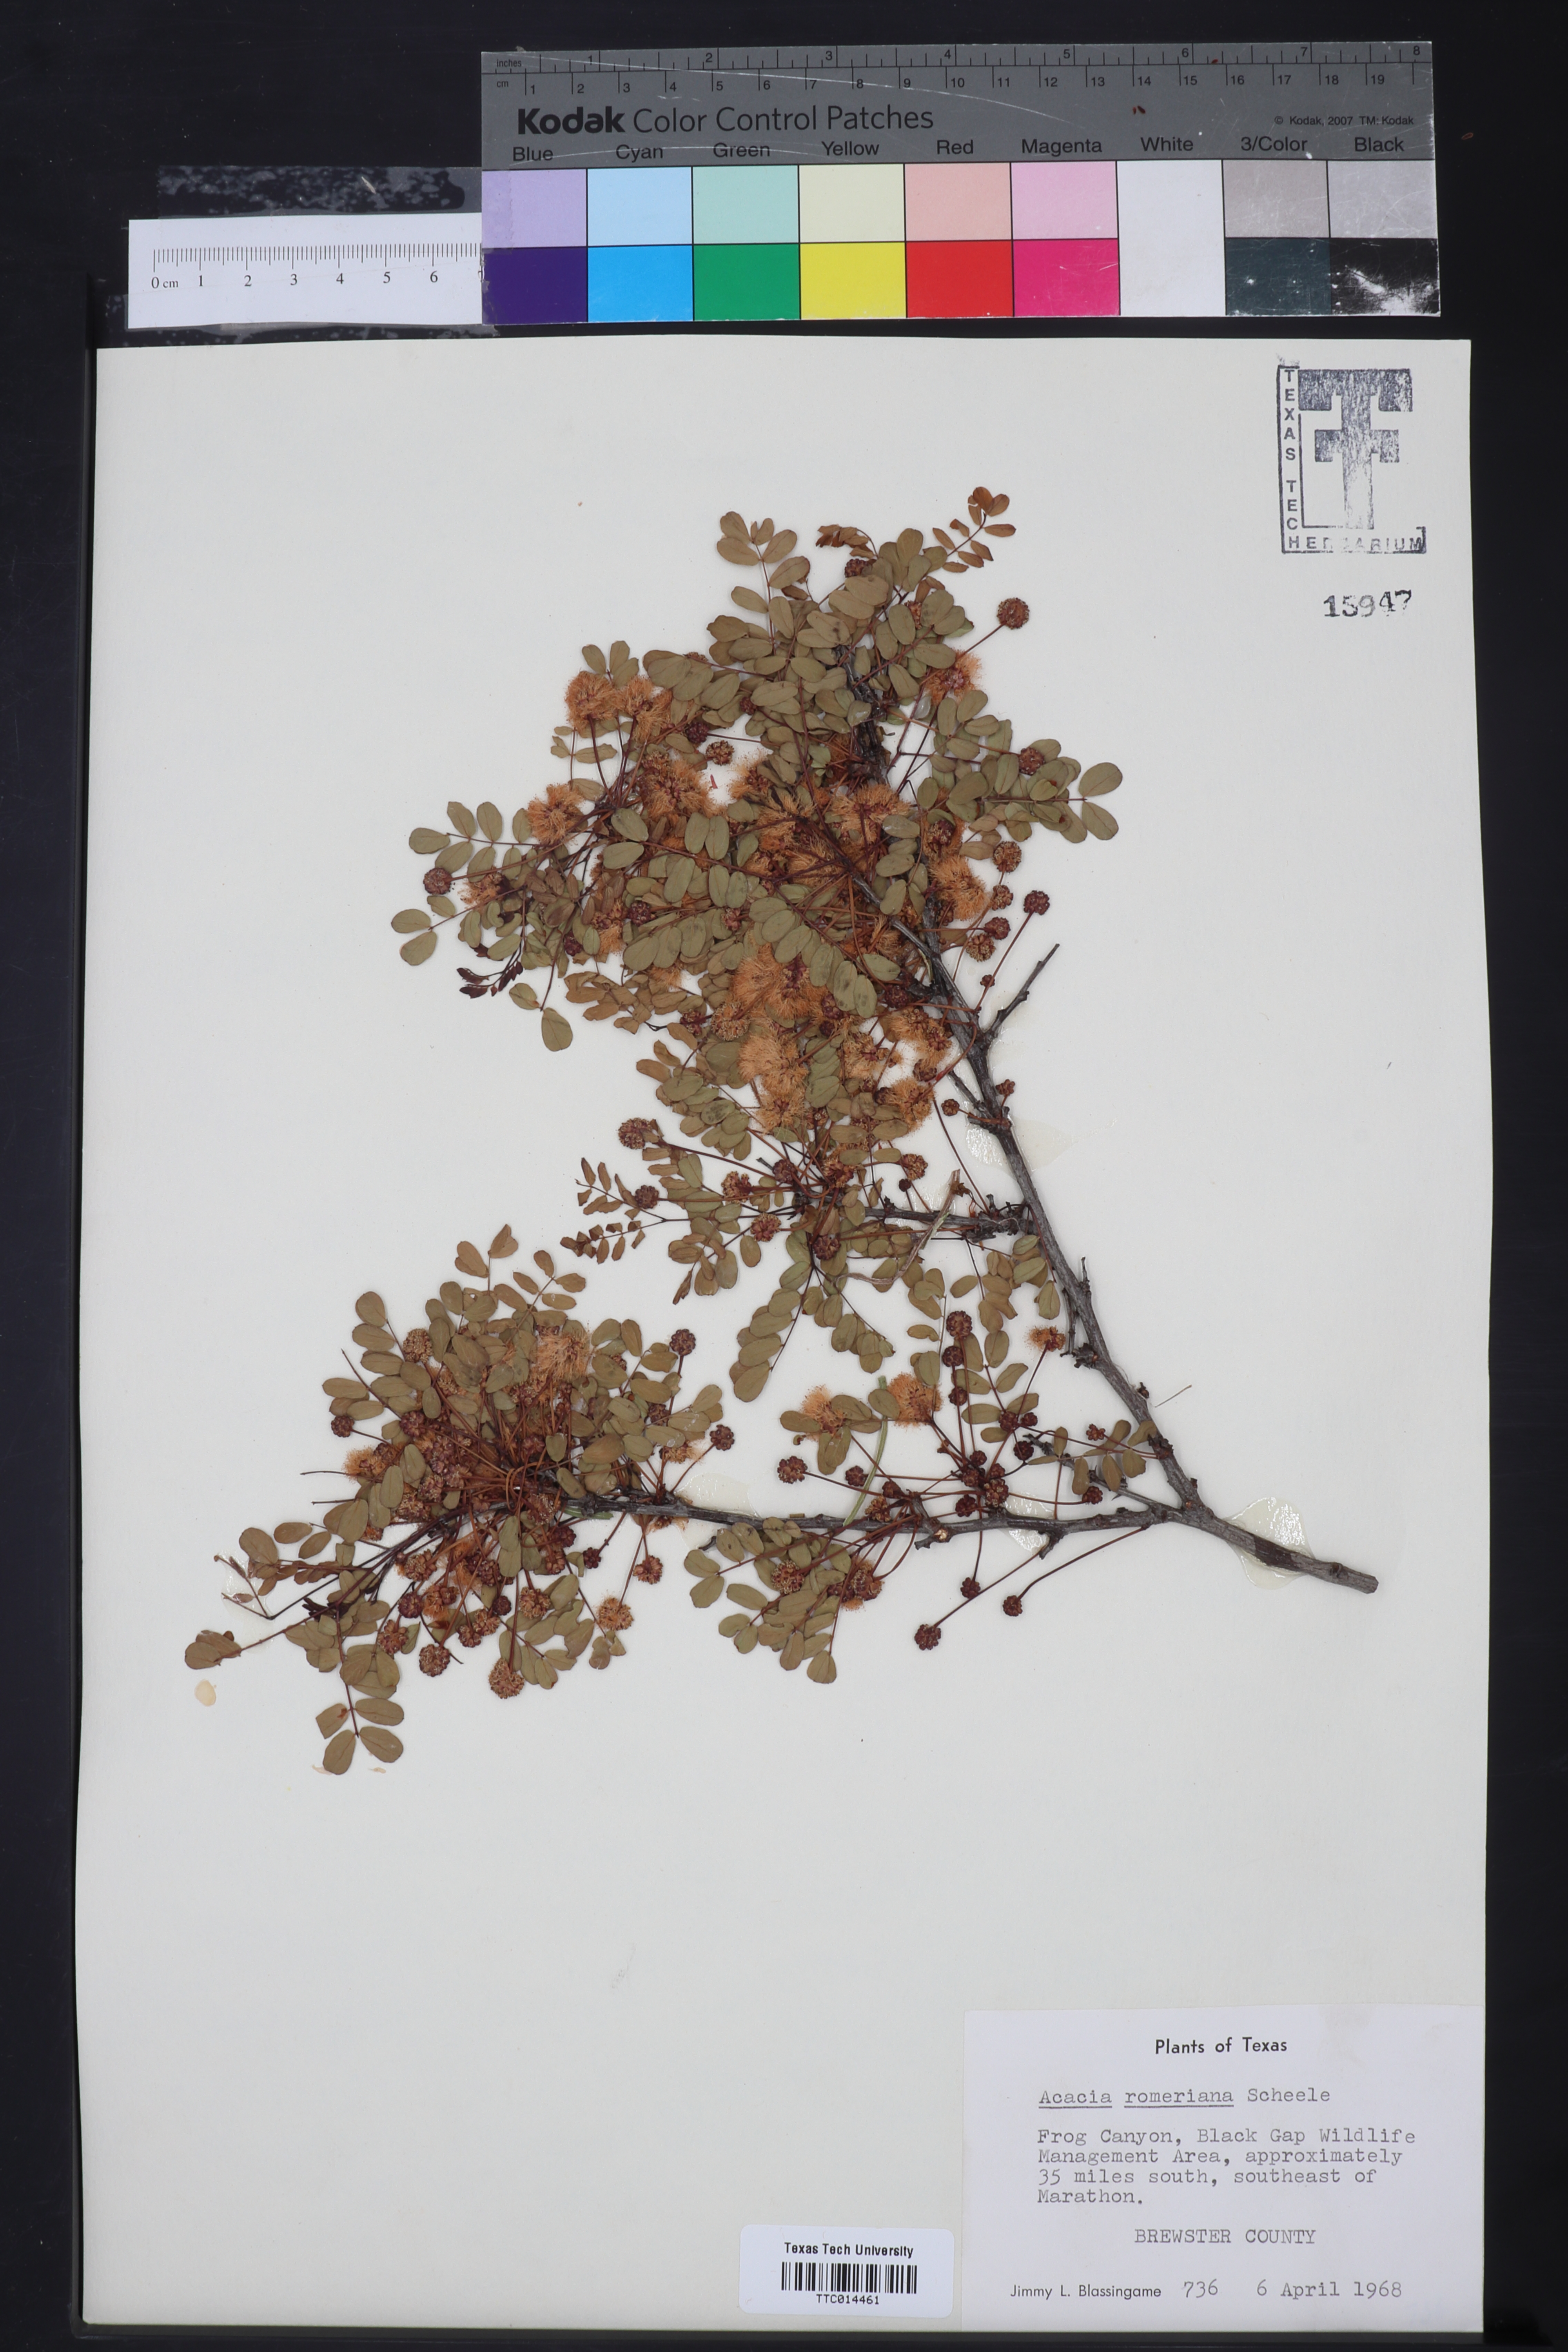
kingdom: Plantae
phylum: Tracheophyta
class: Magnoliopsida
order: Fabales
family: Fabaceae
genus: Senegalia
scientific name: Senegalia roemeriana
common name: Roemer's acacia
